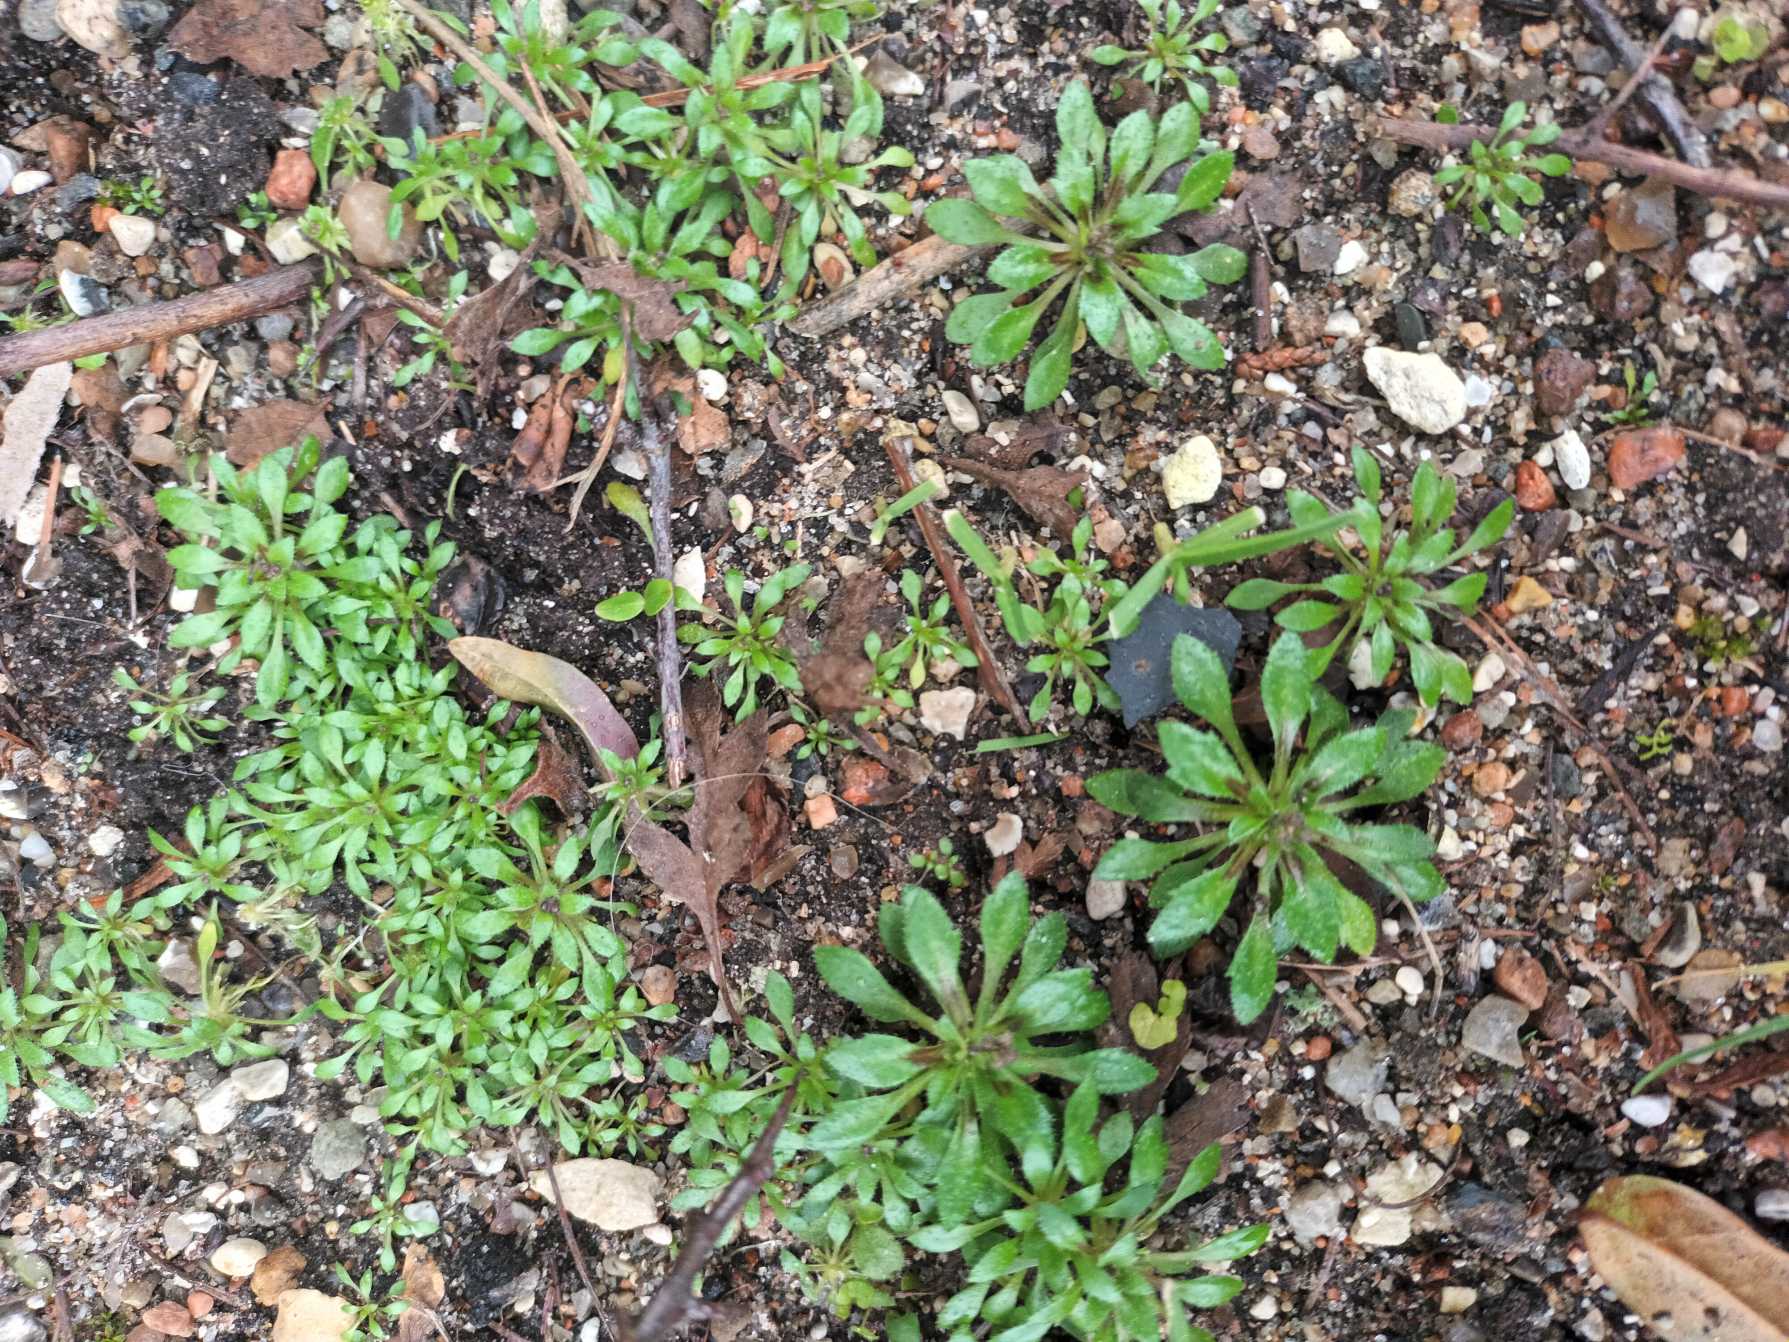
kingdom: Plantae
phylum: Tracheophyta
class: Magnoliopsida
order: Brassicales
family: Brassicaceae
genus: Draba
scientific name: Draba verna
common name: Vår-gæslingeblomst
